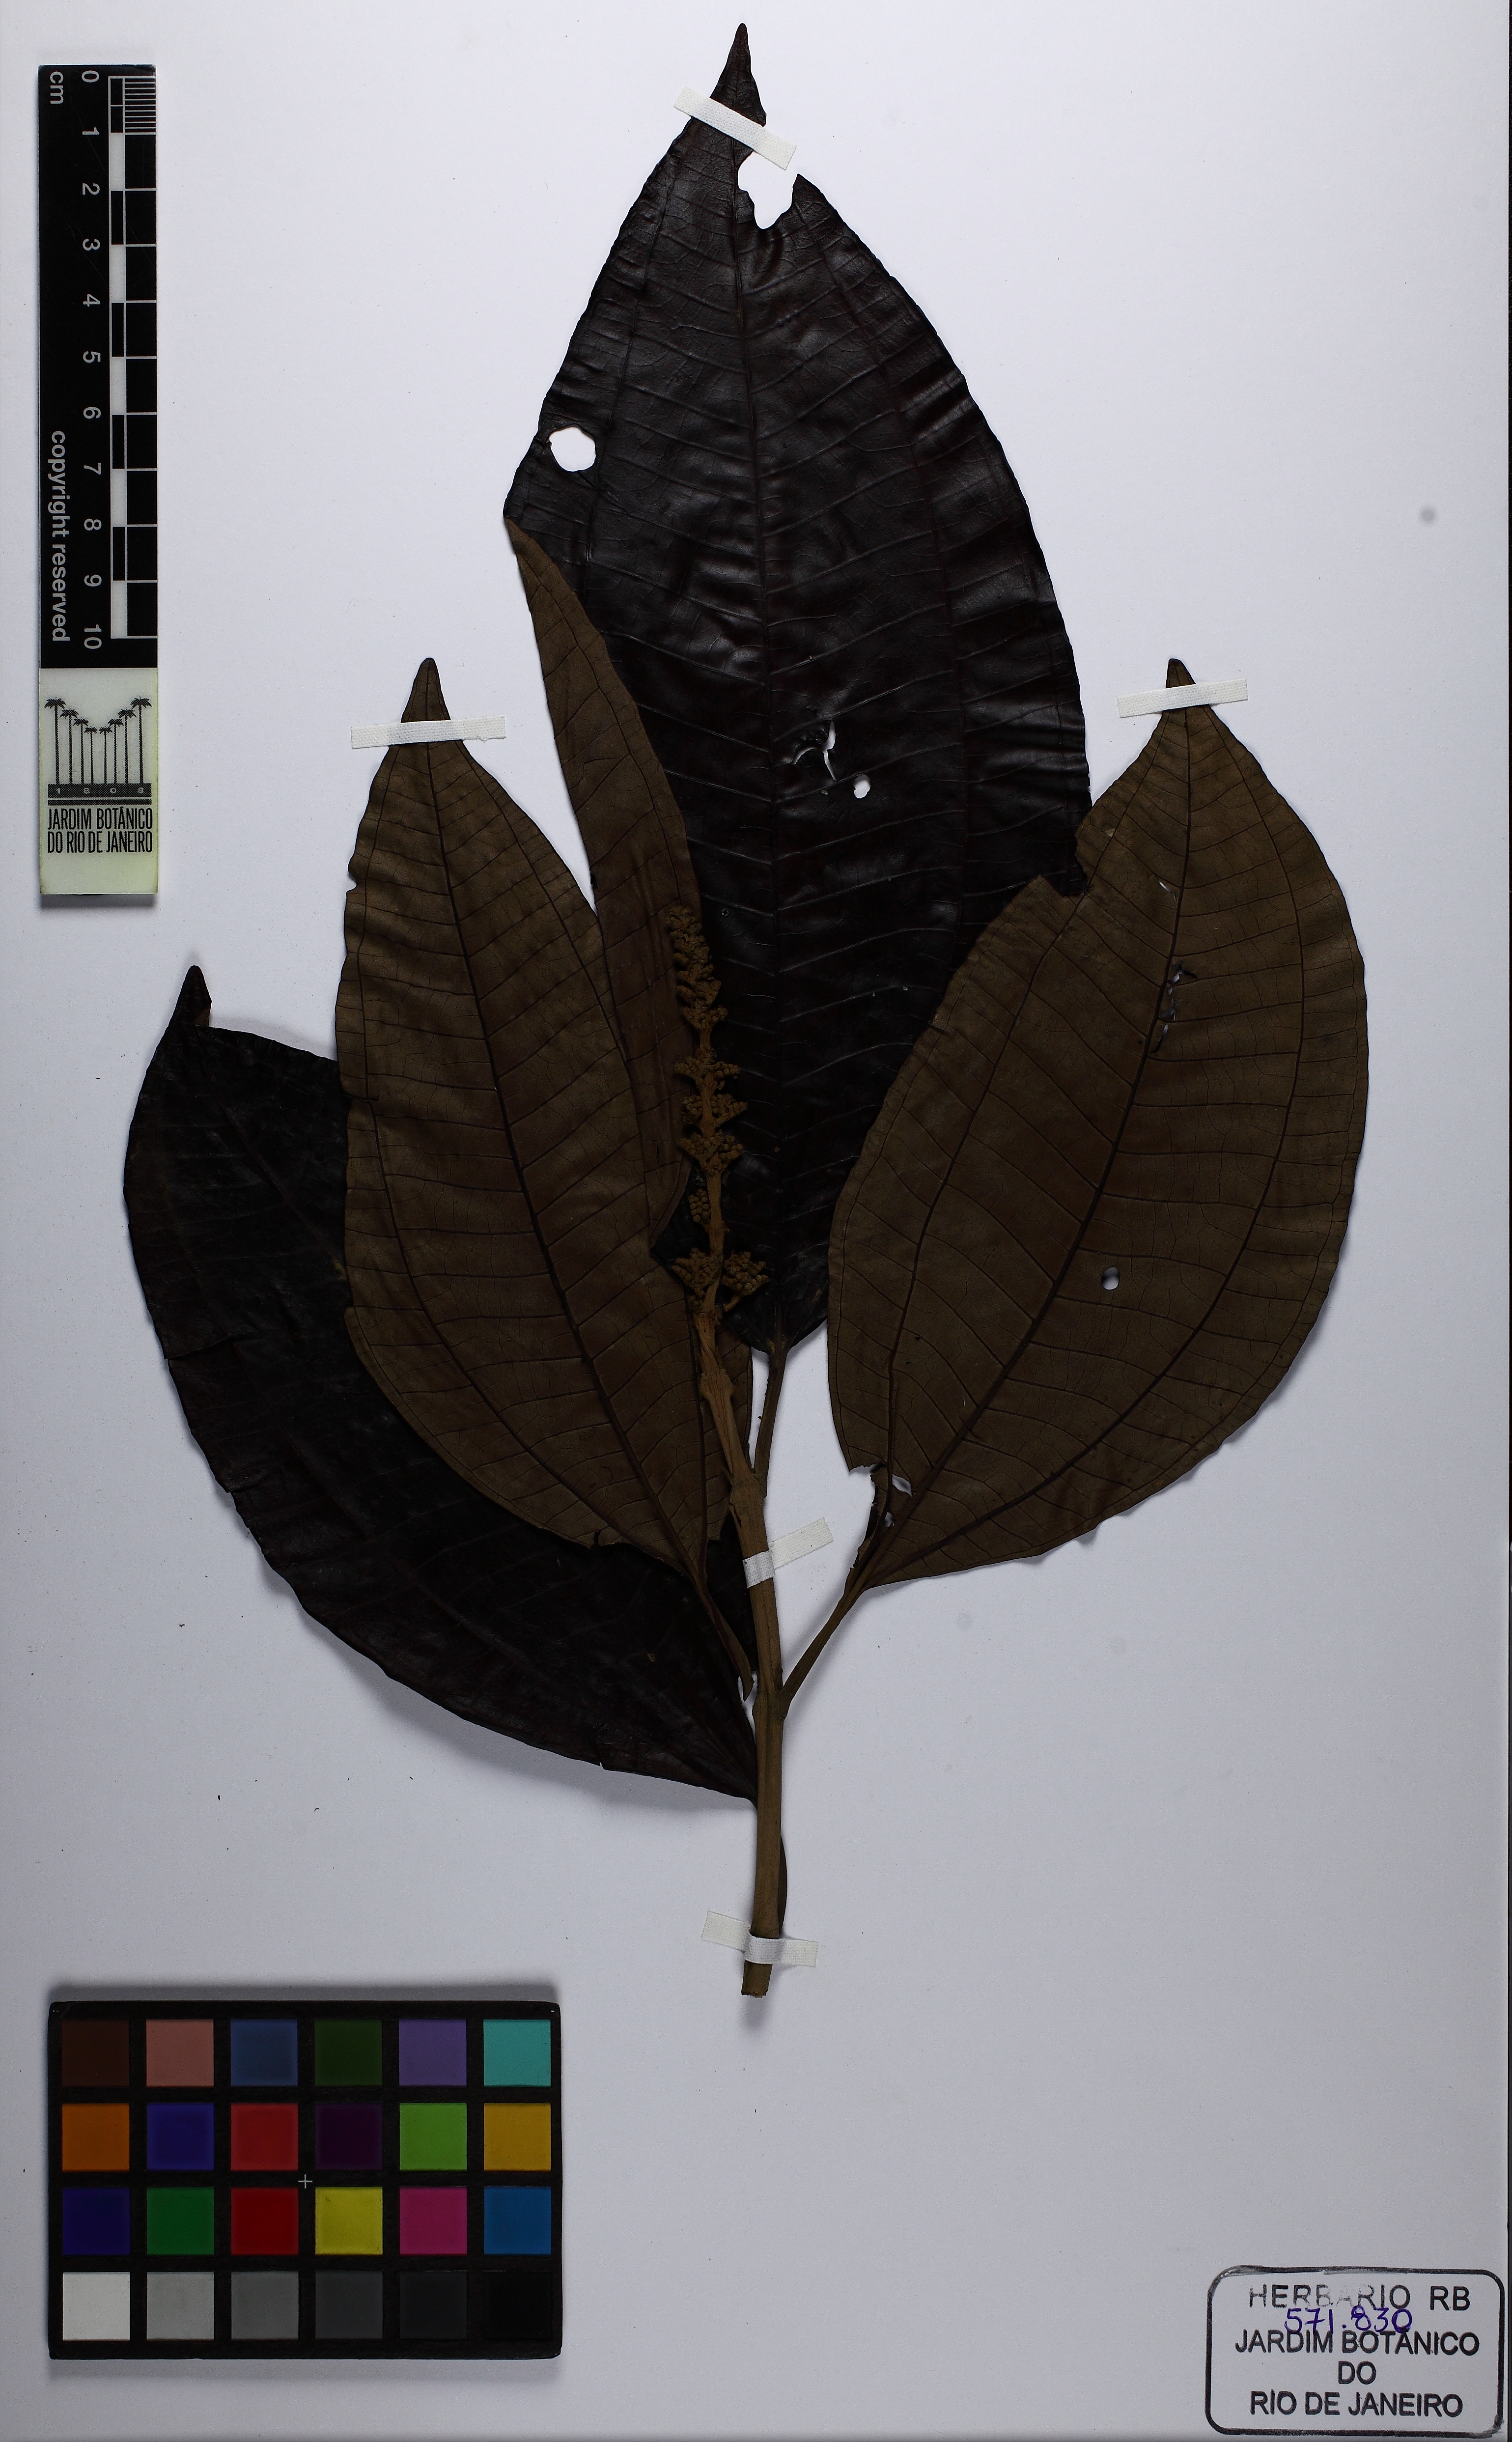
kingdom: Plantae
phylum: Tracheophyta
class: Magnoliopsida
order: Myrtales
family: Melastomataceae
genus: Miconia
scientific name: Miconia lepidota
